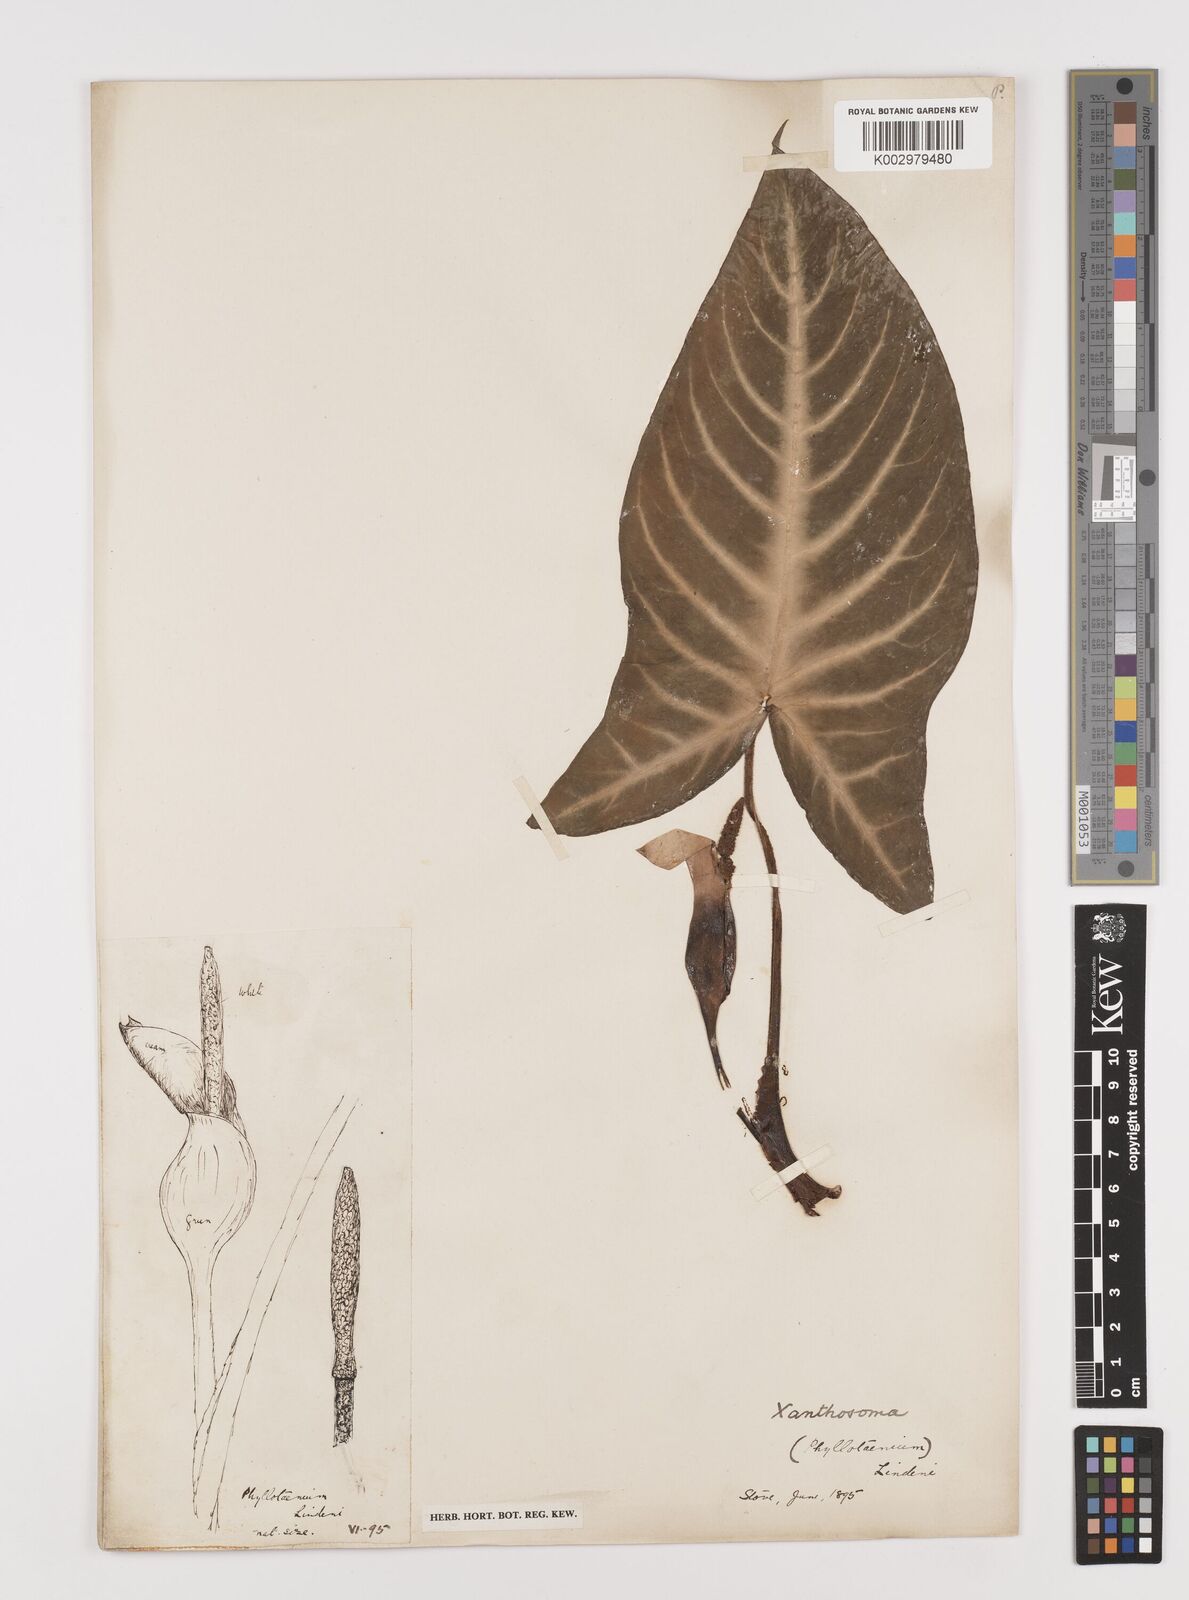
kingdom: Plantae
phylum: Tracheophyta
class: Liliopsida
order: Alismatales
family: Araceae
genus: Caladium
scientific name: Caladium lindenii
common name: Indian-kale
